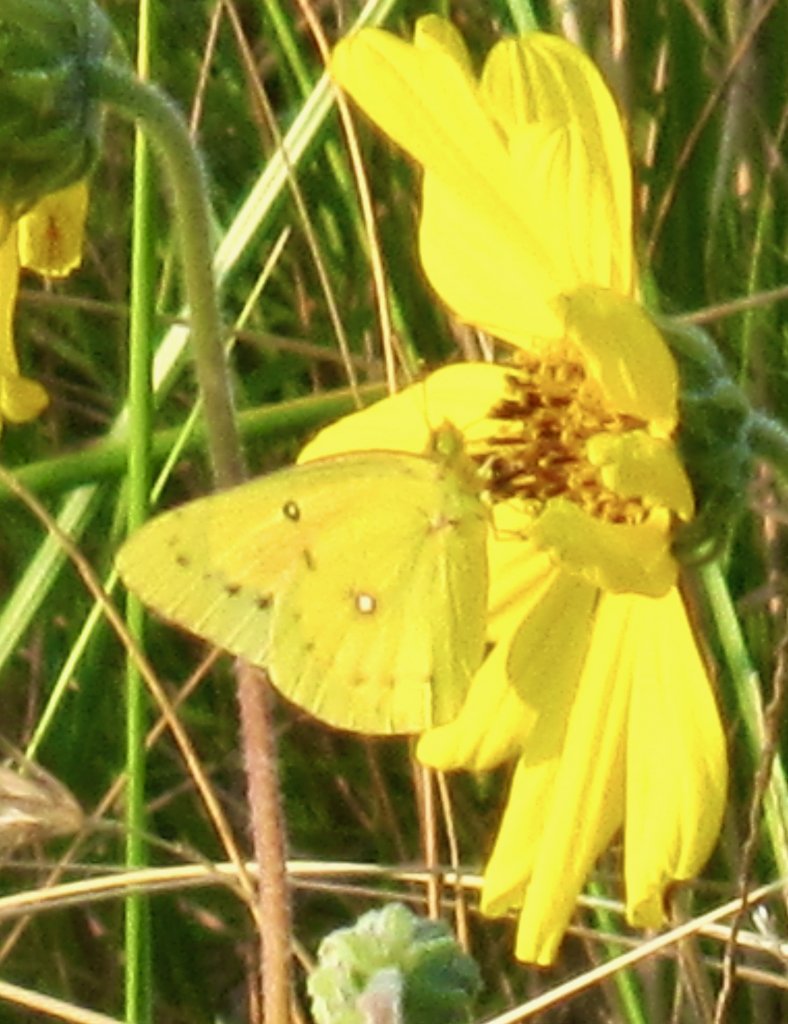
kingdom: Animalia
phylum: Arthropoda
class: Insecta
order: Lepidoptera
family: Pieridae
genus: Colias
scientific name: Colias eurytheme
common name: Orange Sulphur
